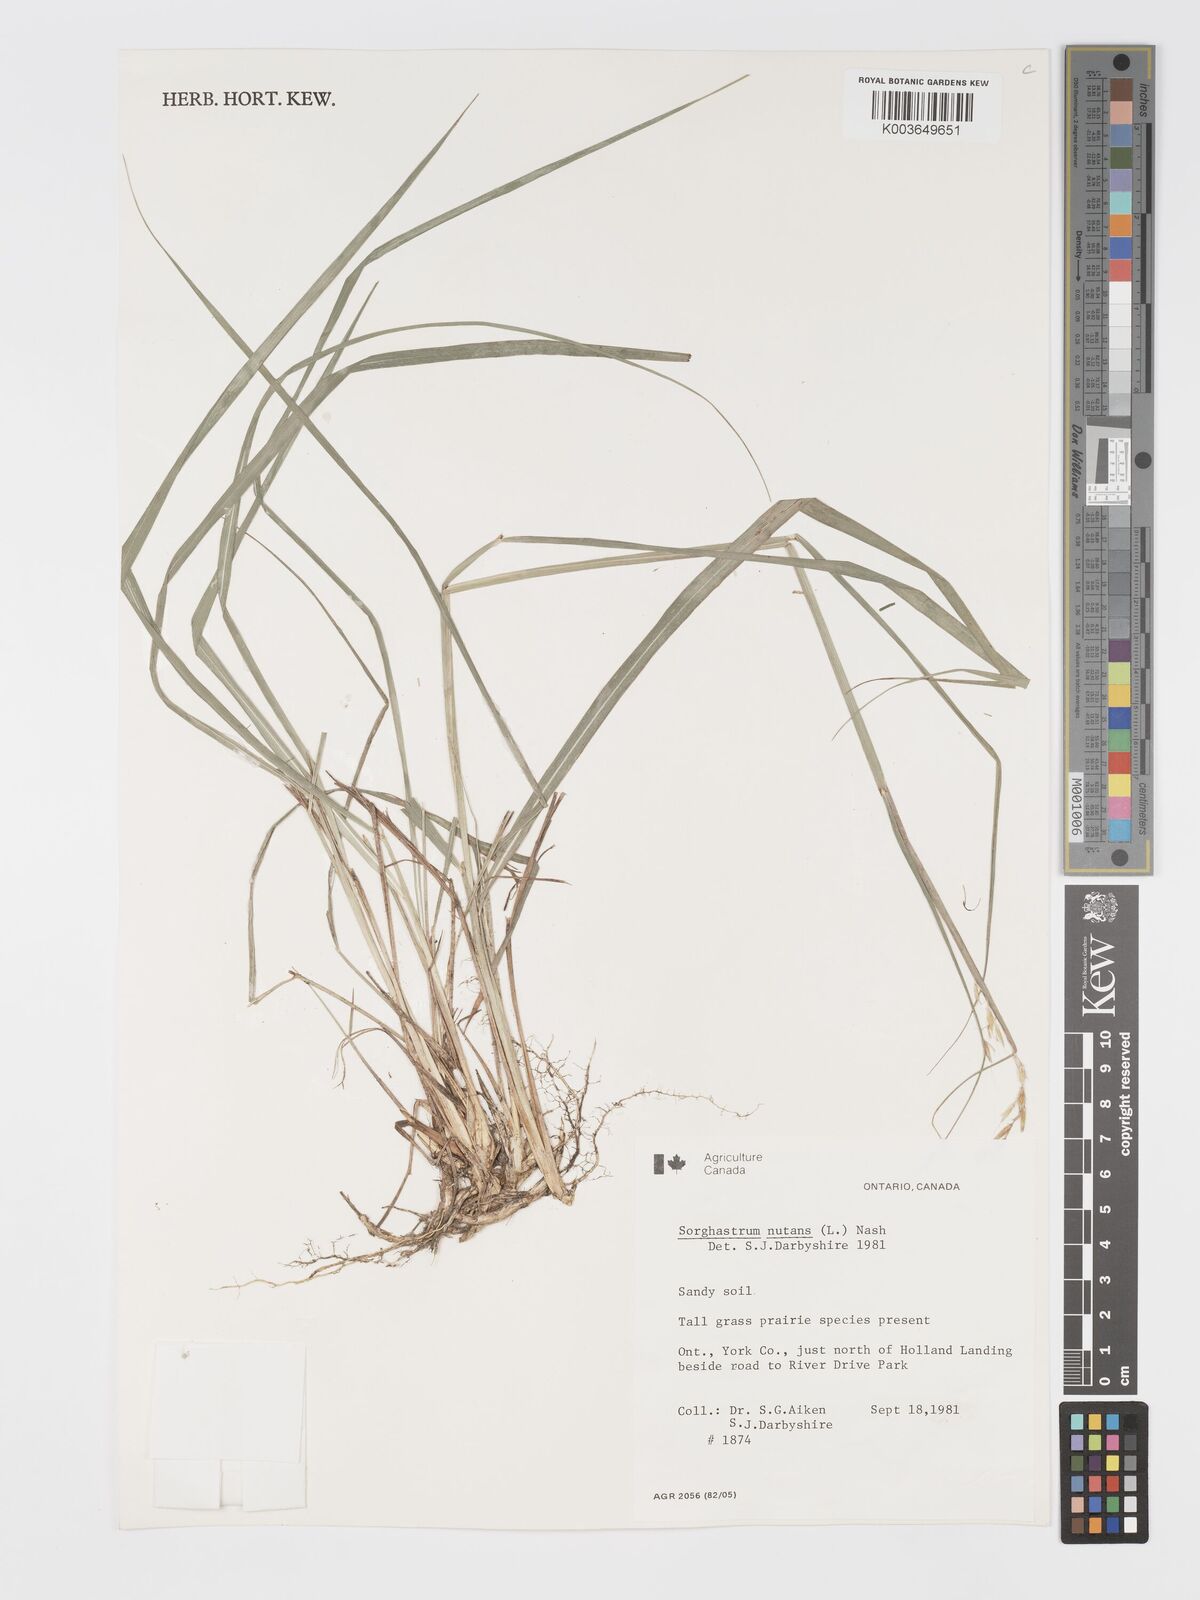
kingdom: Plantae
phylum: Tracheophyta
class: Liliopsida
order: Poales
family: Poaceae
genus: Sorghastrum
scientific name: Sorghastrum nutans
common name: Indian grass
